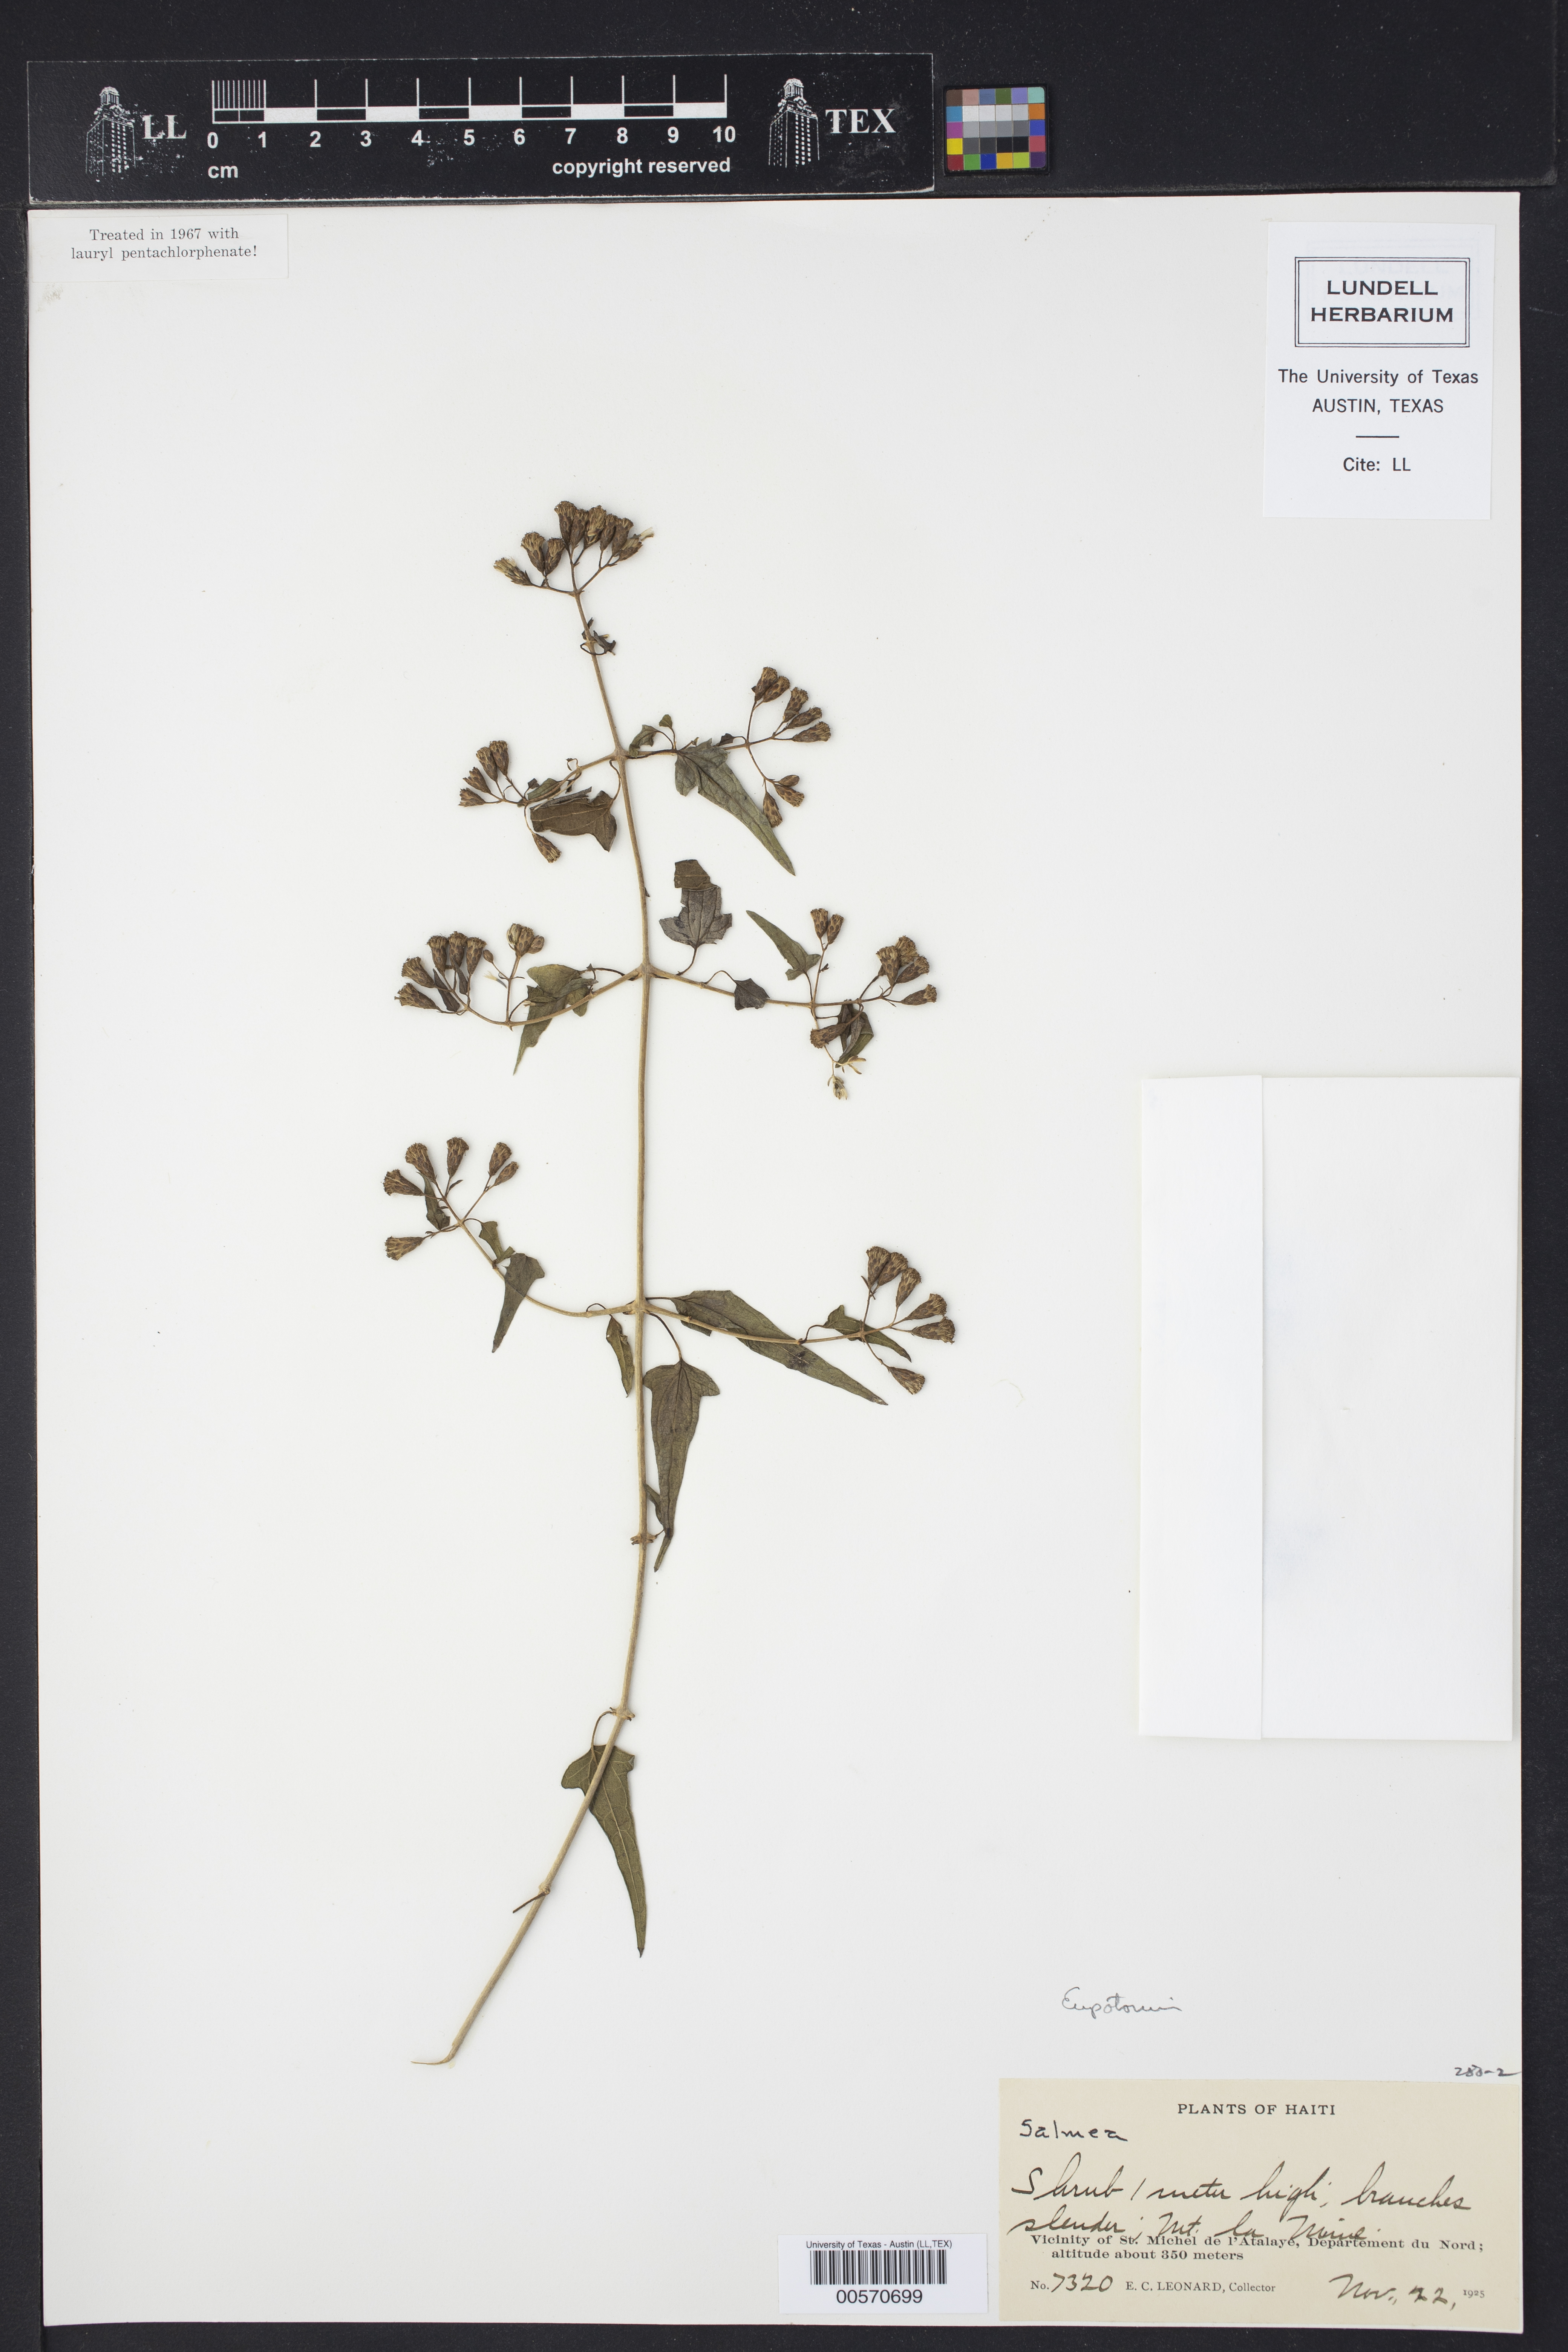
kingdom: Plantae
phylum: Tracheophyta
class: Magnoliopsida
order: Asterales
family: Asteraceae
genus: Osmiopsis
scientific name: Osmiopsis plumerii
